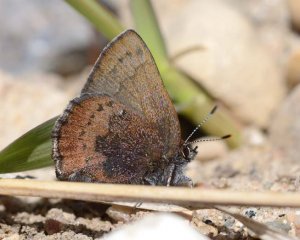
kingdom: Animalia
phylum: Arthropoda
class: Insecta
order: Lepidoptera
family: Lycaenidae
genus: Incisalia
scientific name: Incisalia irioides
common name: Brown Elfin
